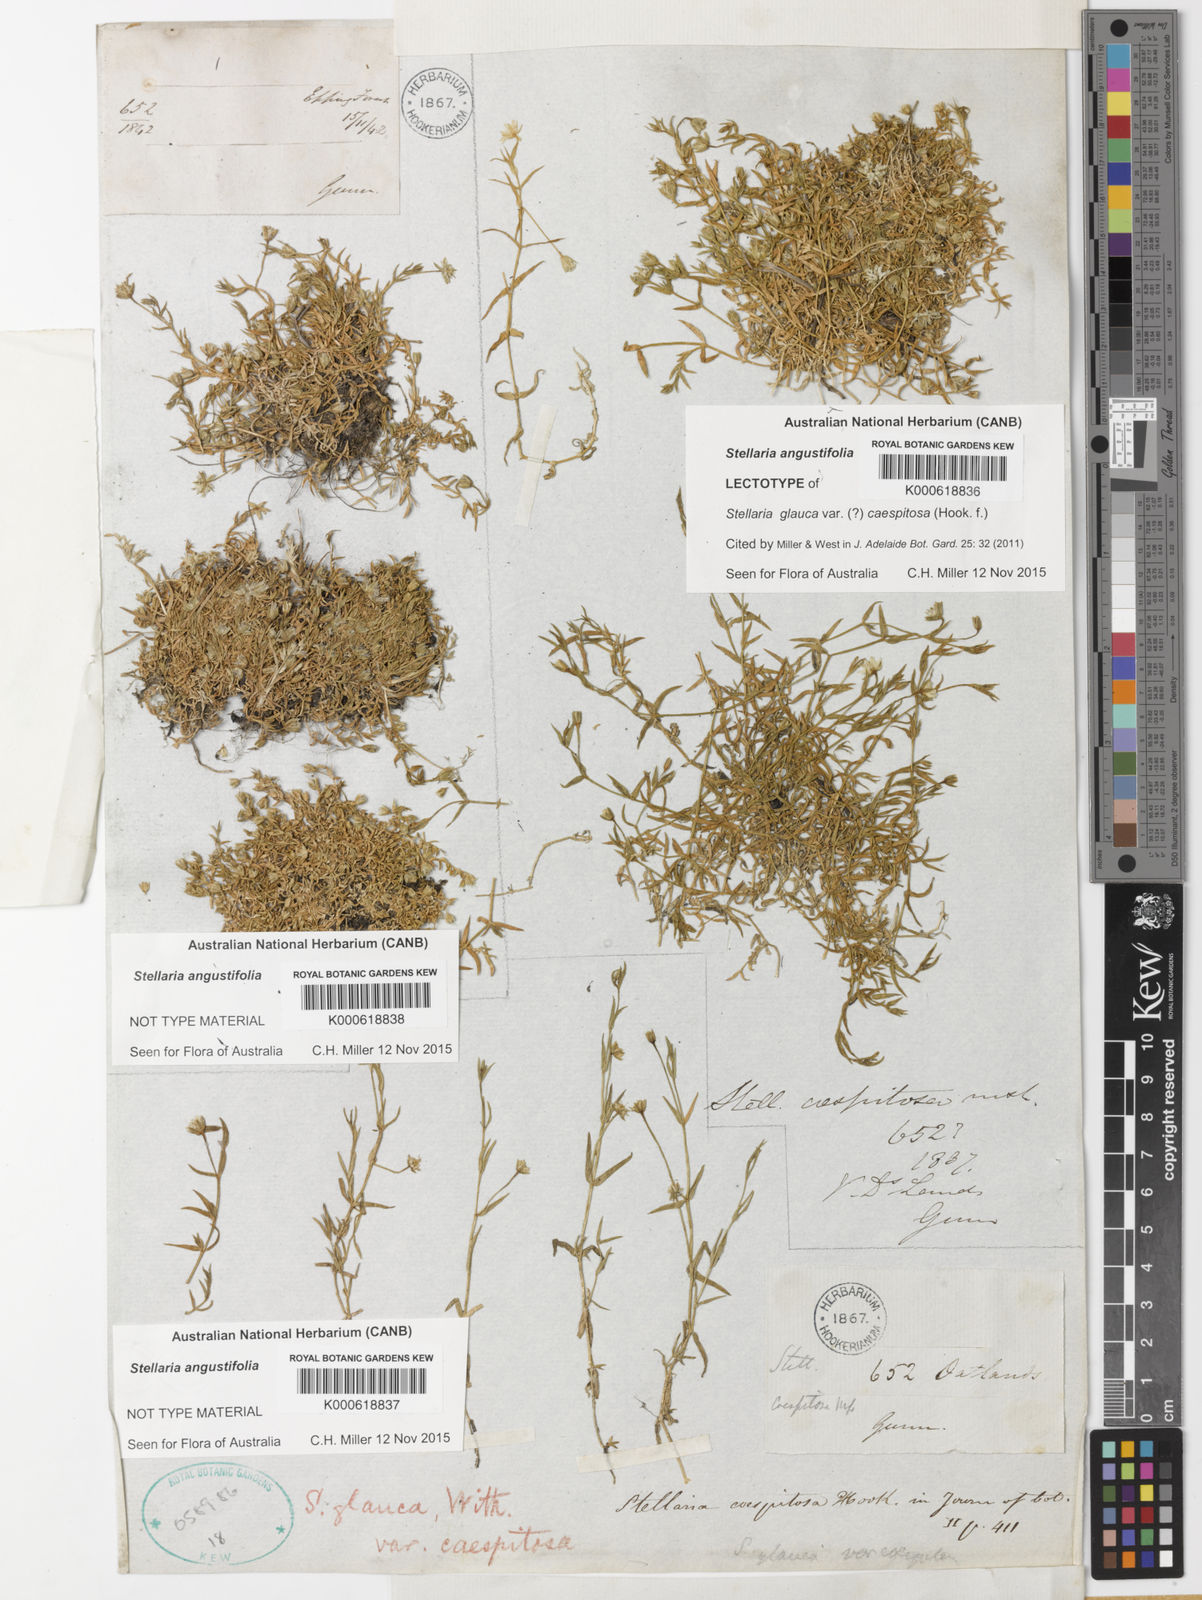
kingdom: Plantae
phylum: Tracheophyta
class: Magnoliopsida
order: Caryophyllales
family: Caryophyllaceae
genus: Stellaria
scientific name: Stellaria angustifolia
